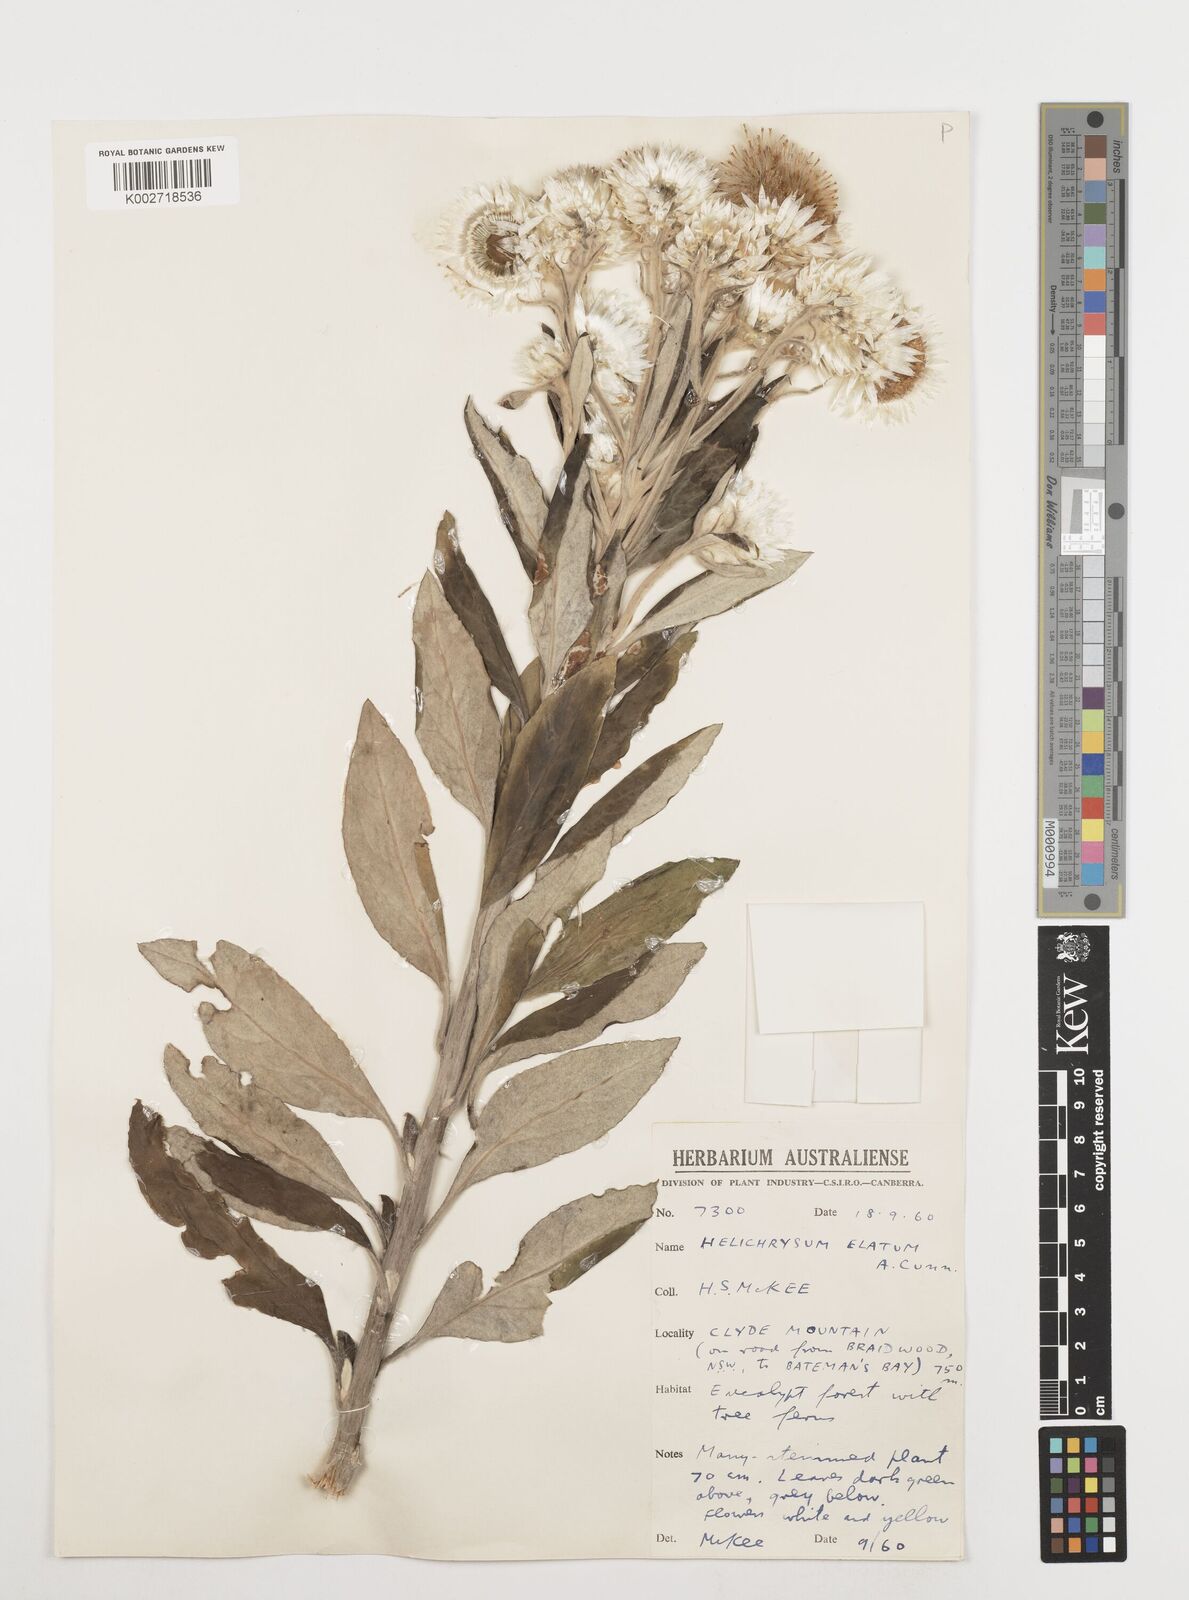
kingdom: Plantae
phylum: Tracheophyta
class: Magnoliopsida
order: Asterales
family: Asteraceae
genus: Leucozoma
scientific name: Leucozoma elatum
